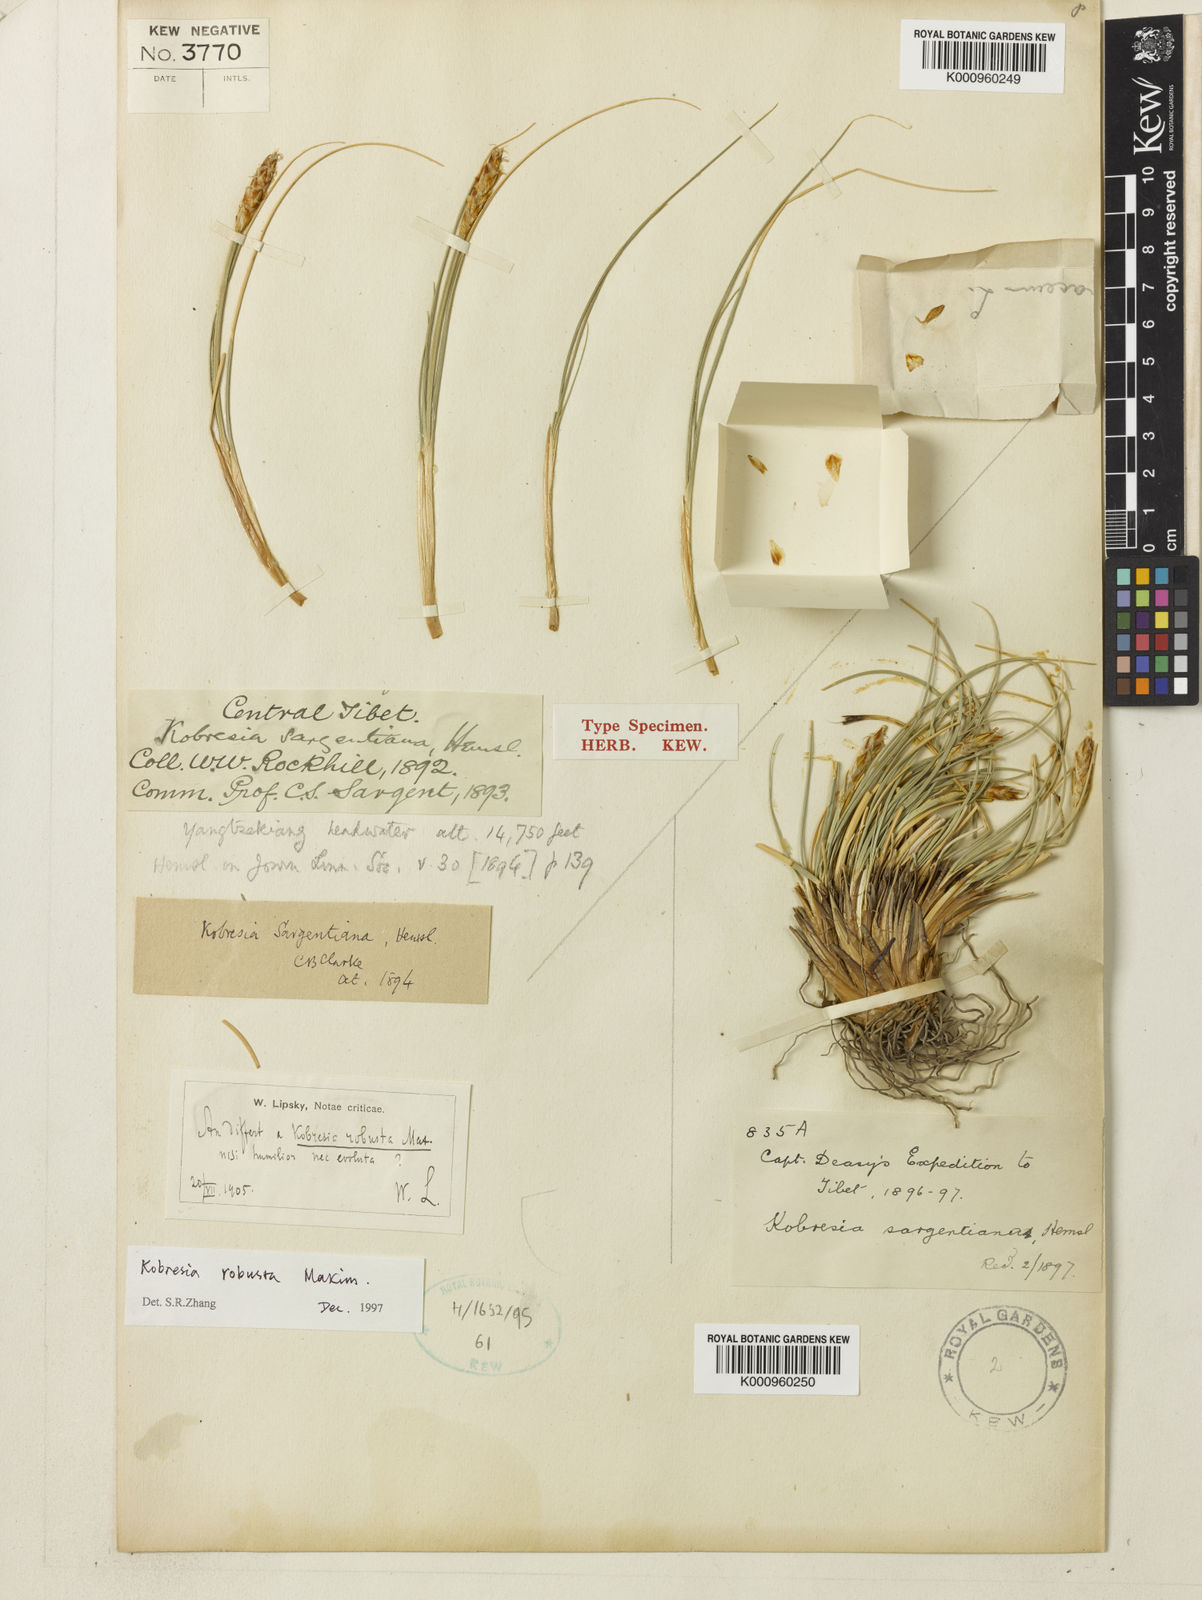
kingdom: Plantae
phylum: Tracheophyta
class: Liliopsida
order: Poales
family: Cyperaceae
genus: Carex
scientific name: Carex sargentiana
